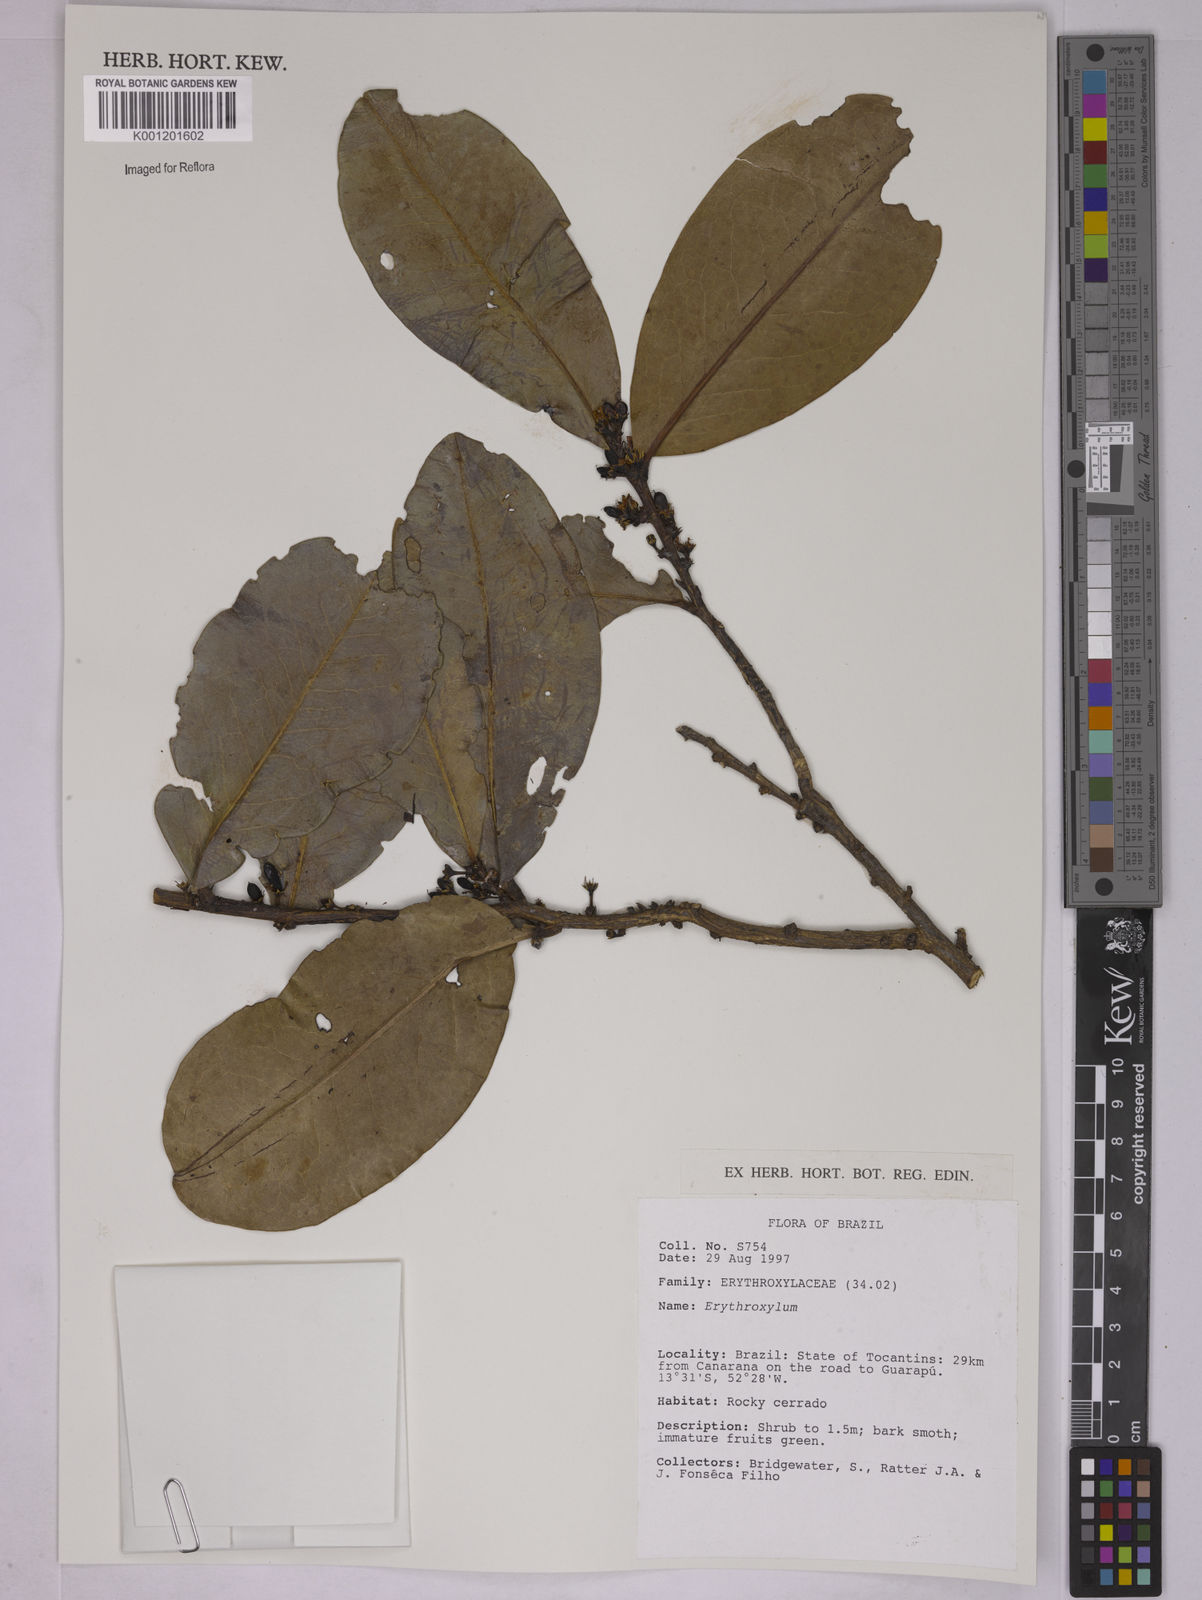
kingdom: Plantae
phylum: Tracheophyta
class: Magnoliopsida
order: Malpighiales
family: Erythroxylaceae
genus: Erythroxylum
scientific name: Erythroxylum
